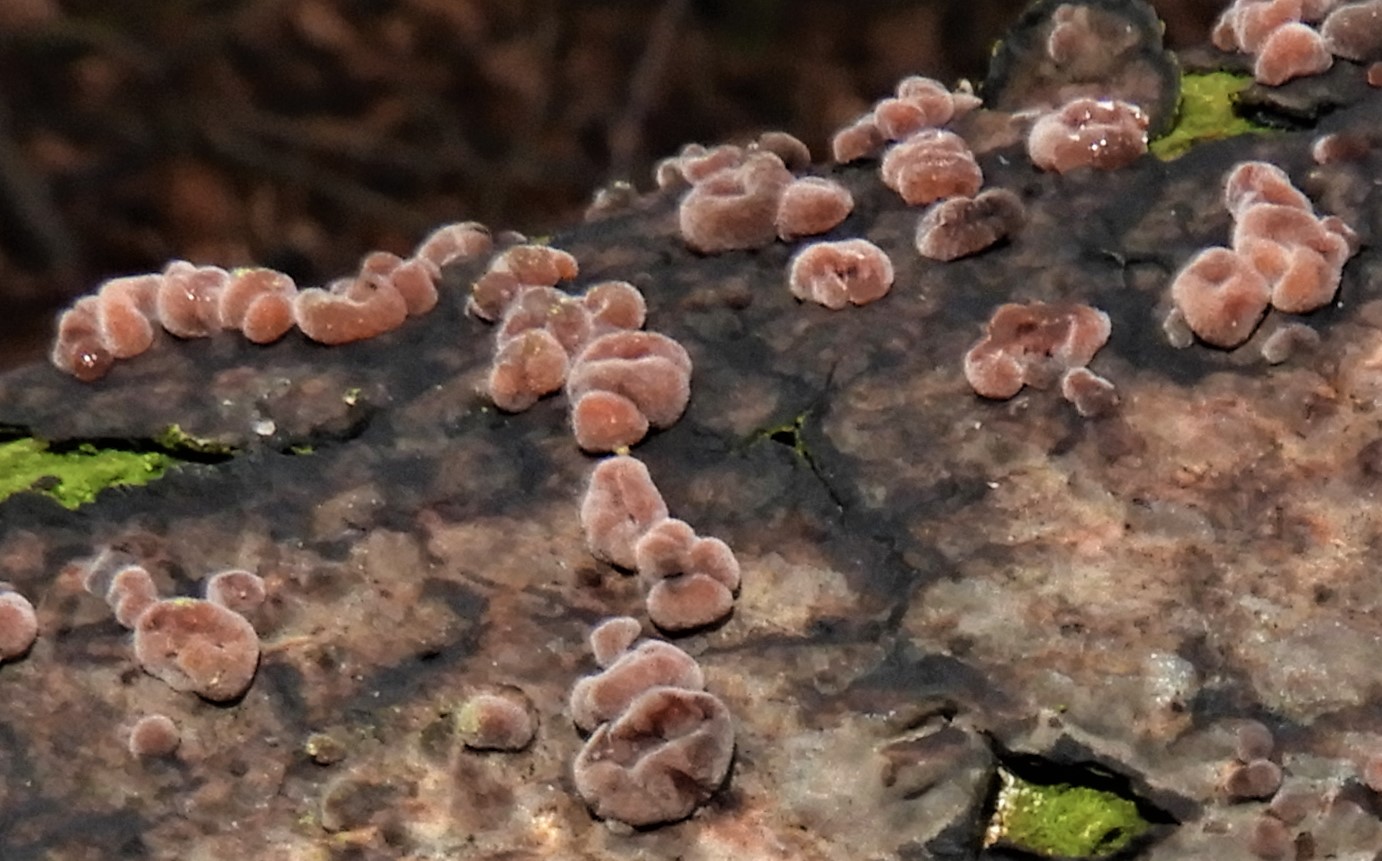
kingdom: Fungi
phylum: Basidiomycota
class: Agaricomycetes
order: Russulales
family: Peniophoraceae
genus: Peniophora
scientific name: Peniophora quercina
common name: ege-voksskind
